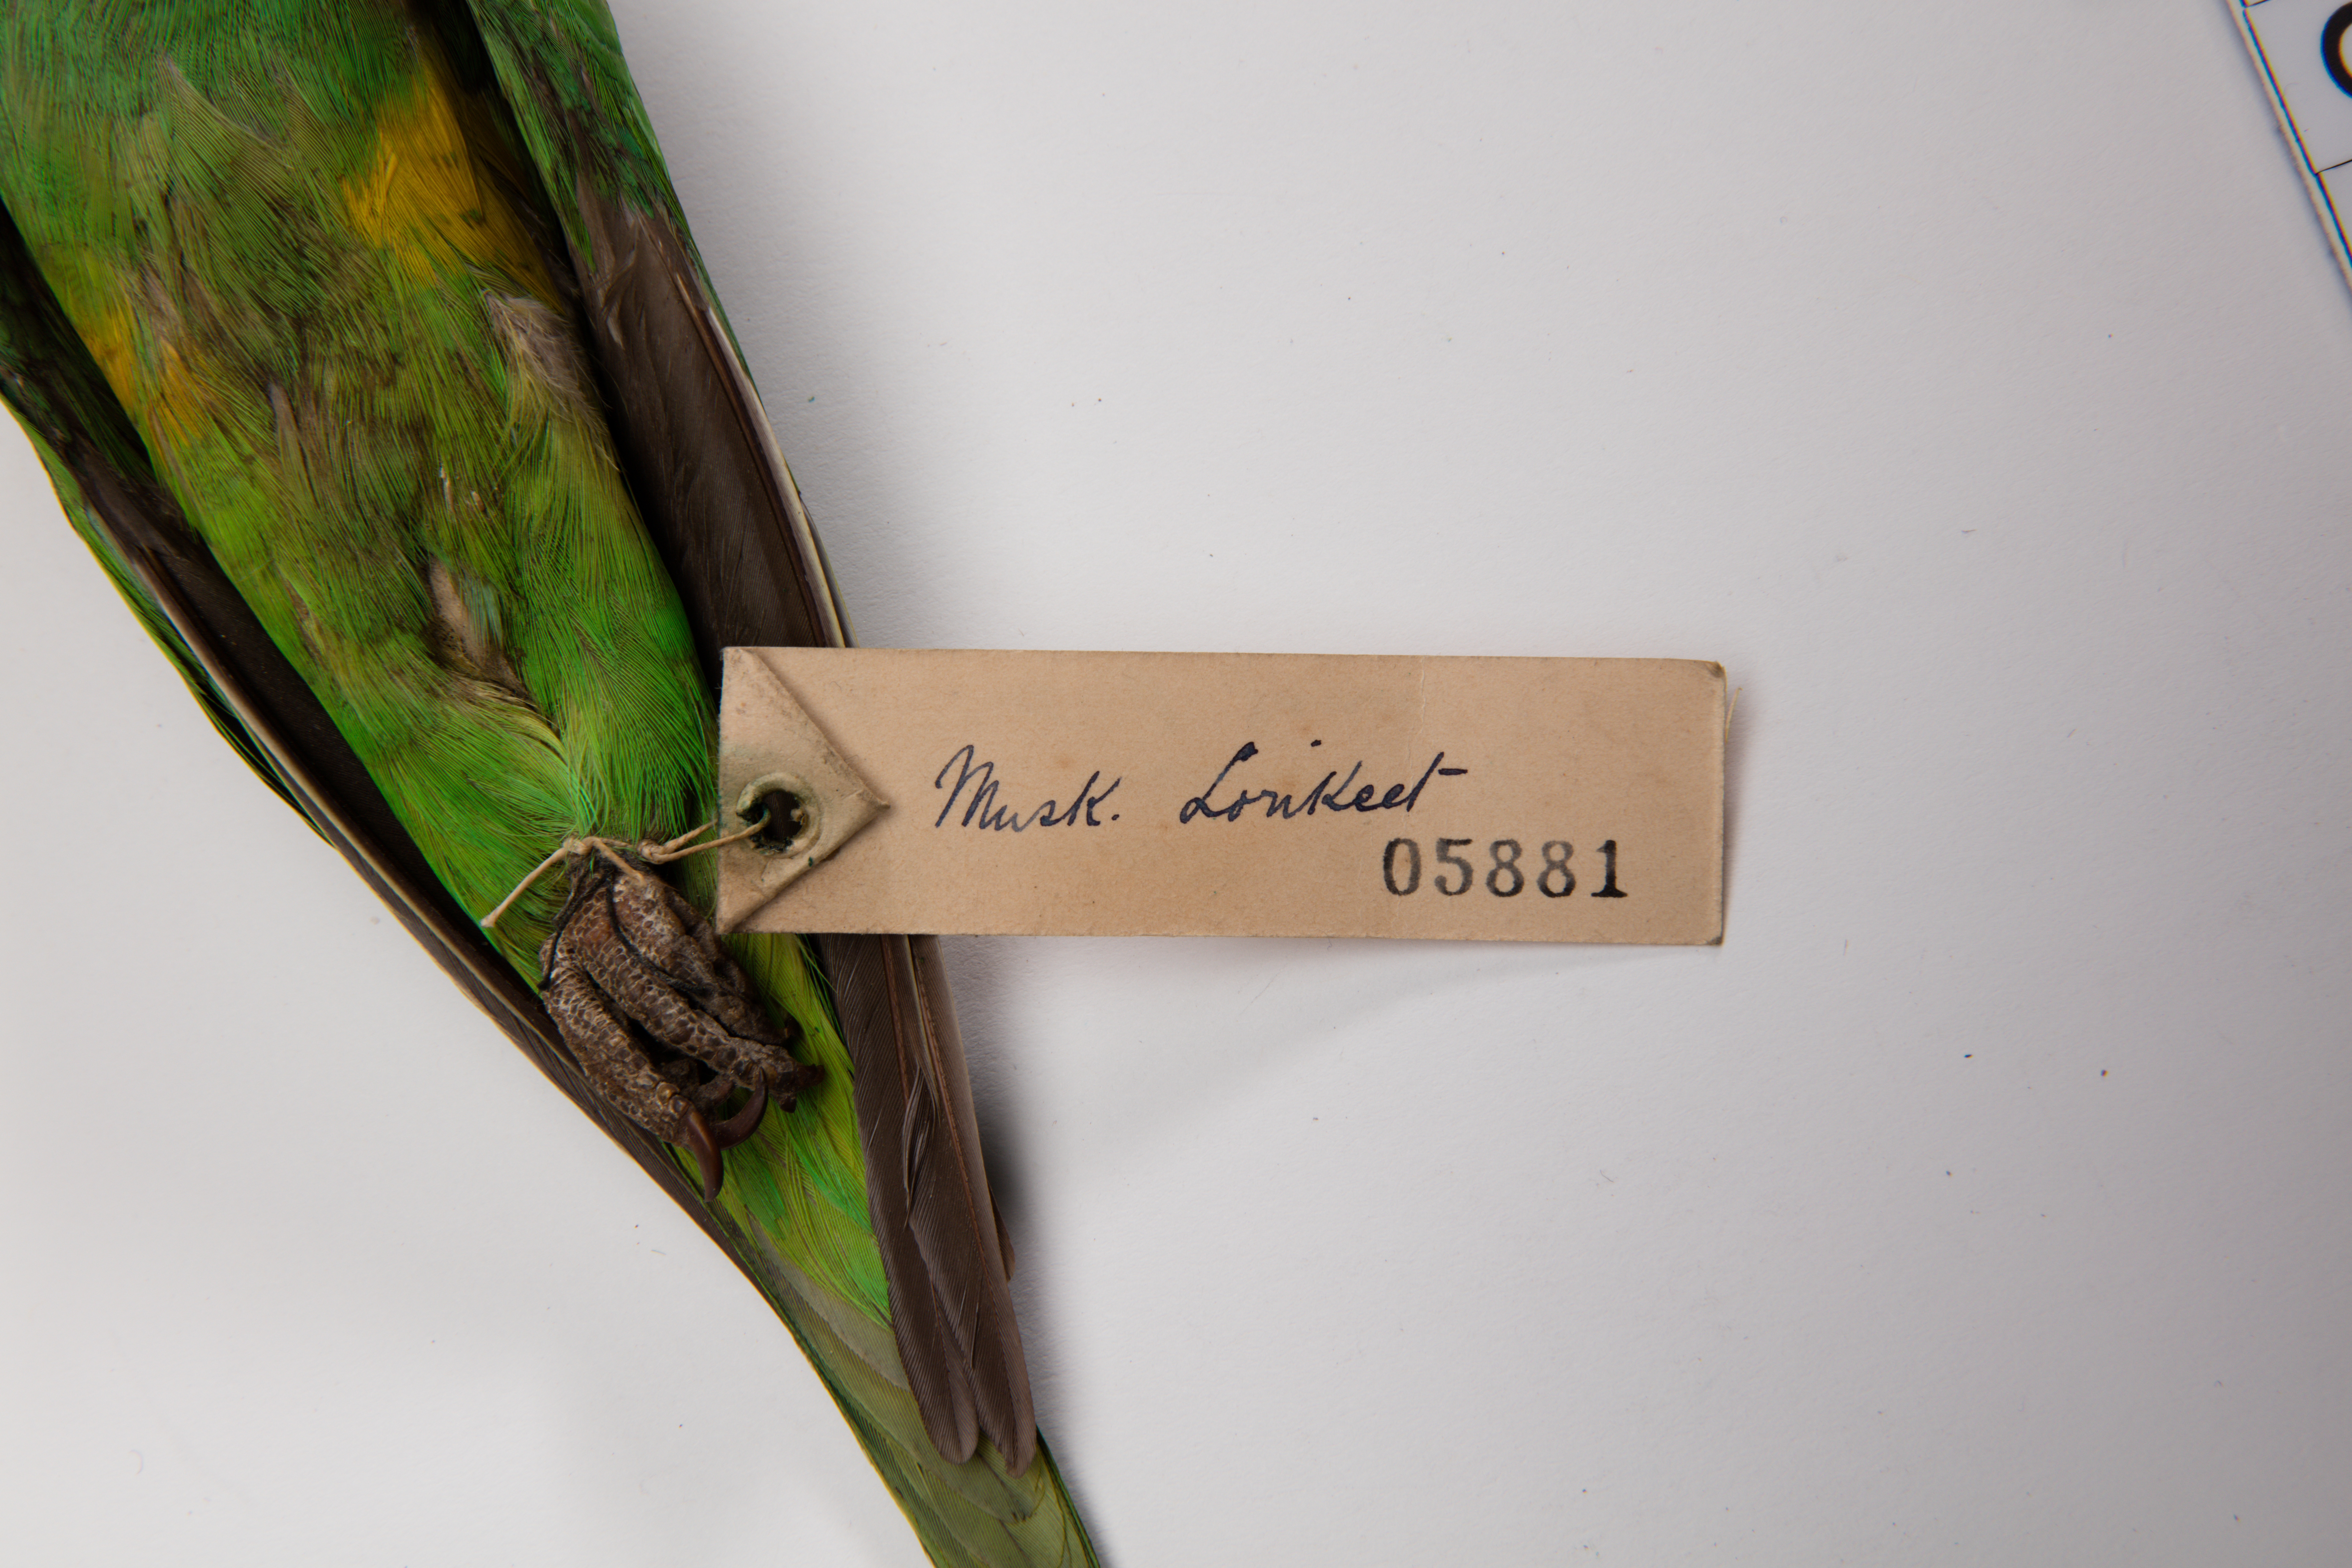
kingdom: Animalia
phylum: Chordata
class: Aves
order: Psittaciformes
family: Psittacidae
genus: Glossopsitta
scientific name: Glossopsitta concinna
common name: Musk lorikeet
